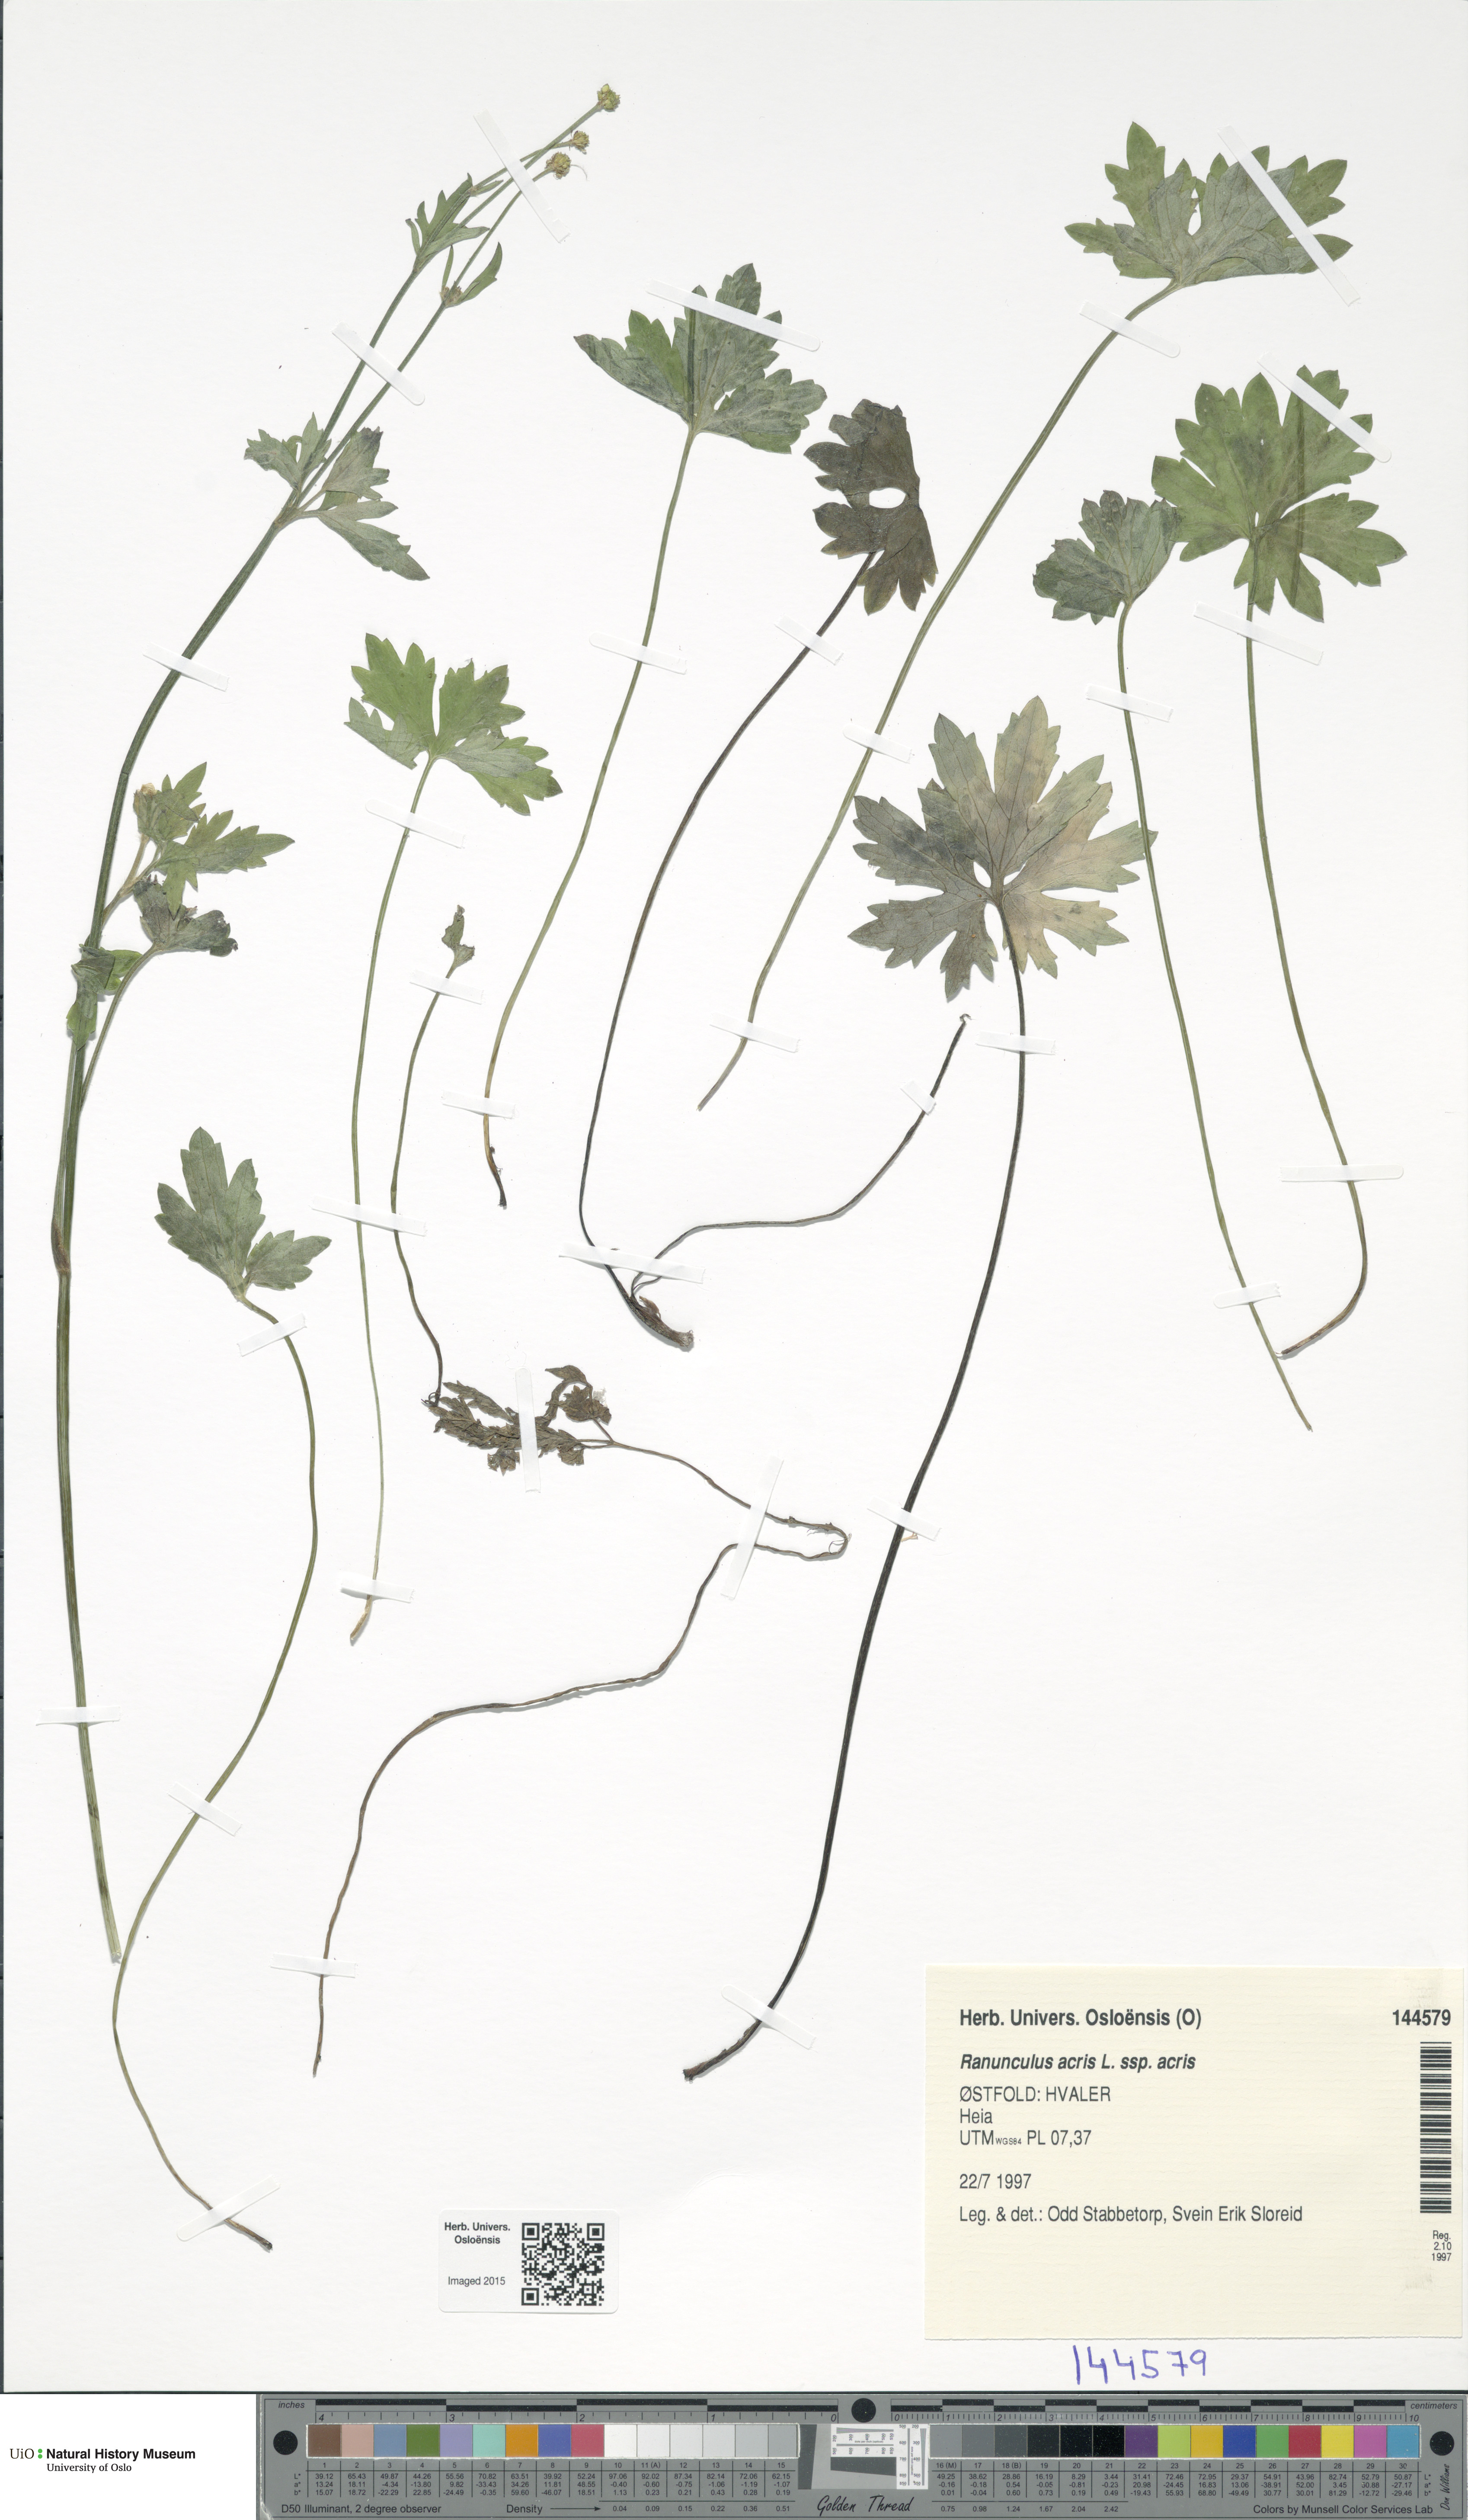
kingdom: Plantae
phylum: Tracheophyta
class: Magnoliopsida
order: Ranunculales
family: Ranunculaceae
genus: Ranunculus
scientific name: Ranunculus acris
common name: Meadow buttercup
